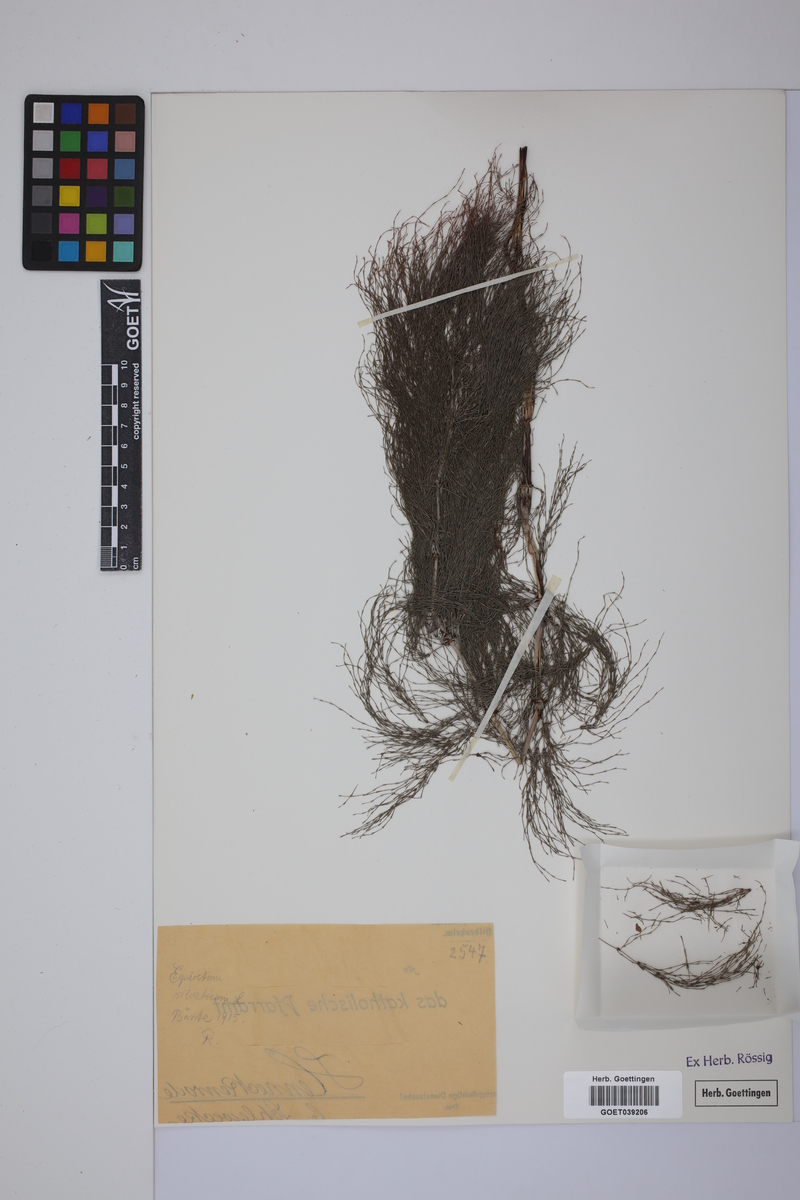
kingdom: Plantae
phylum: Tracheophyta
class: Polypodiopsida
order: Equisetales
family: Equisetaceae
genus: Equisetum
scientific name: Equisetum sylvaticum
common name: Wood horsetail
